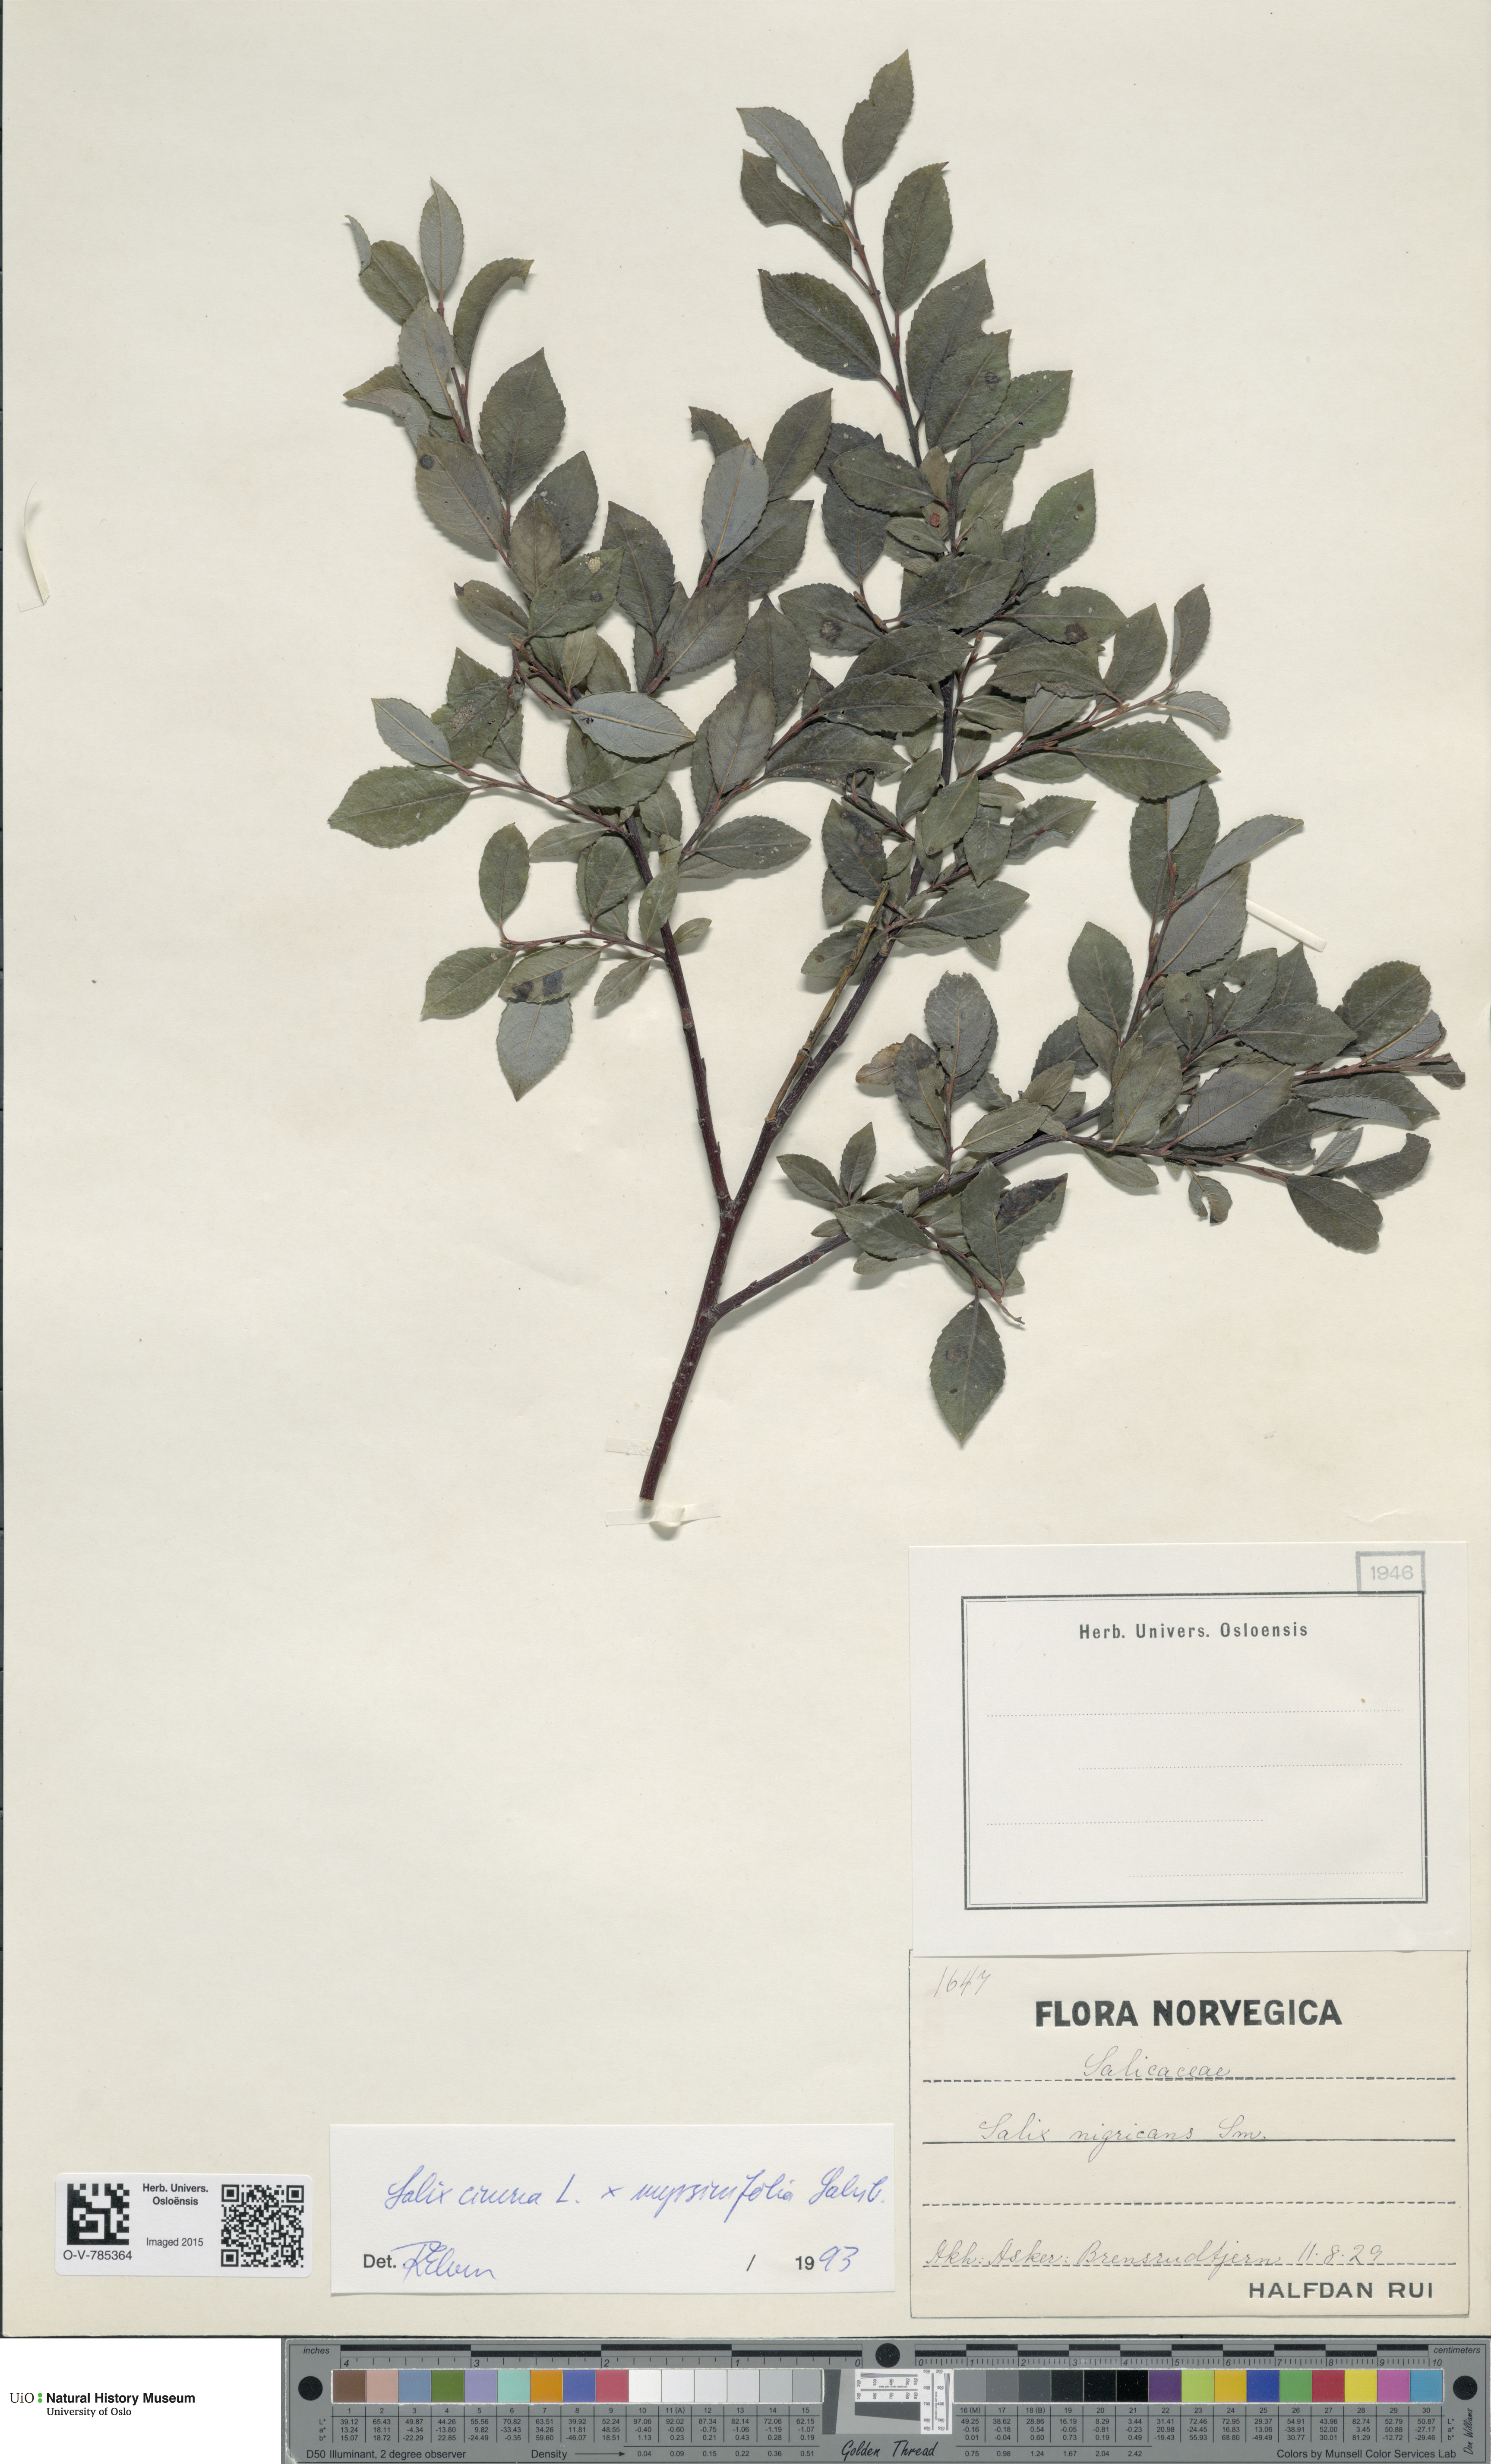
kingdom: Plantae
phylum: Tracheophyta
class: Magnoliopsida
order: Malpighiales
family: Salicaceae
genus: Salix
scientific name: Salix
